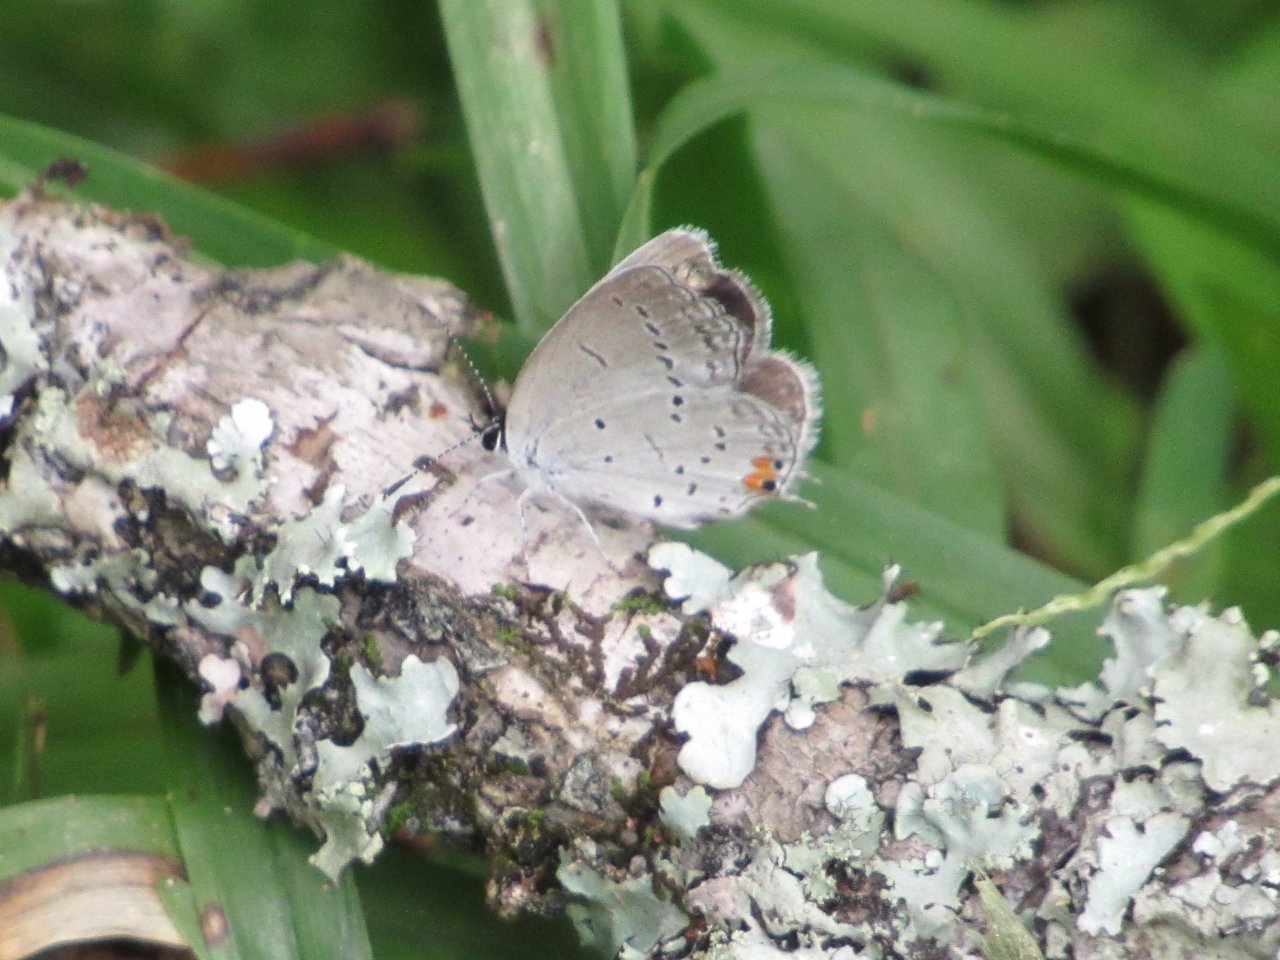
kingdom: Animalia
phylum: Arthropoda
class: Insecta
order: Lepidoptera
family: Lycaenidae
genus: Elkalyce
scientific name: Elkalyce comyntas
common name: Eastern Tailed-Blue
